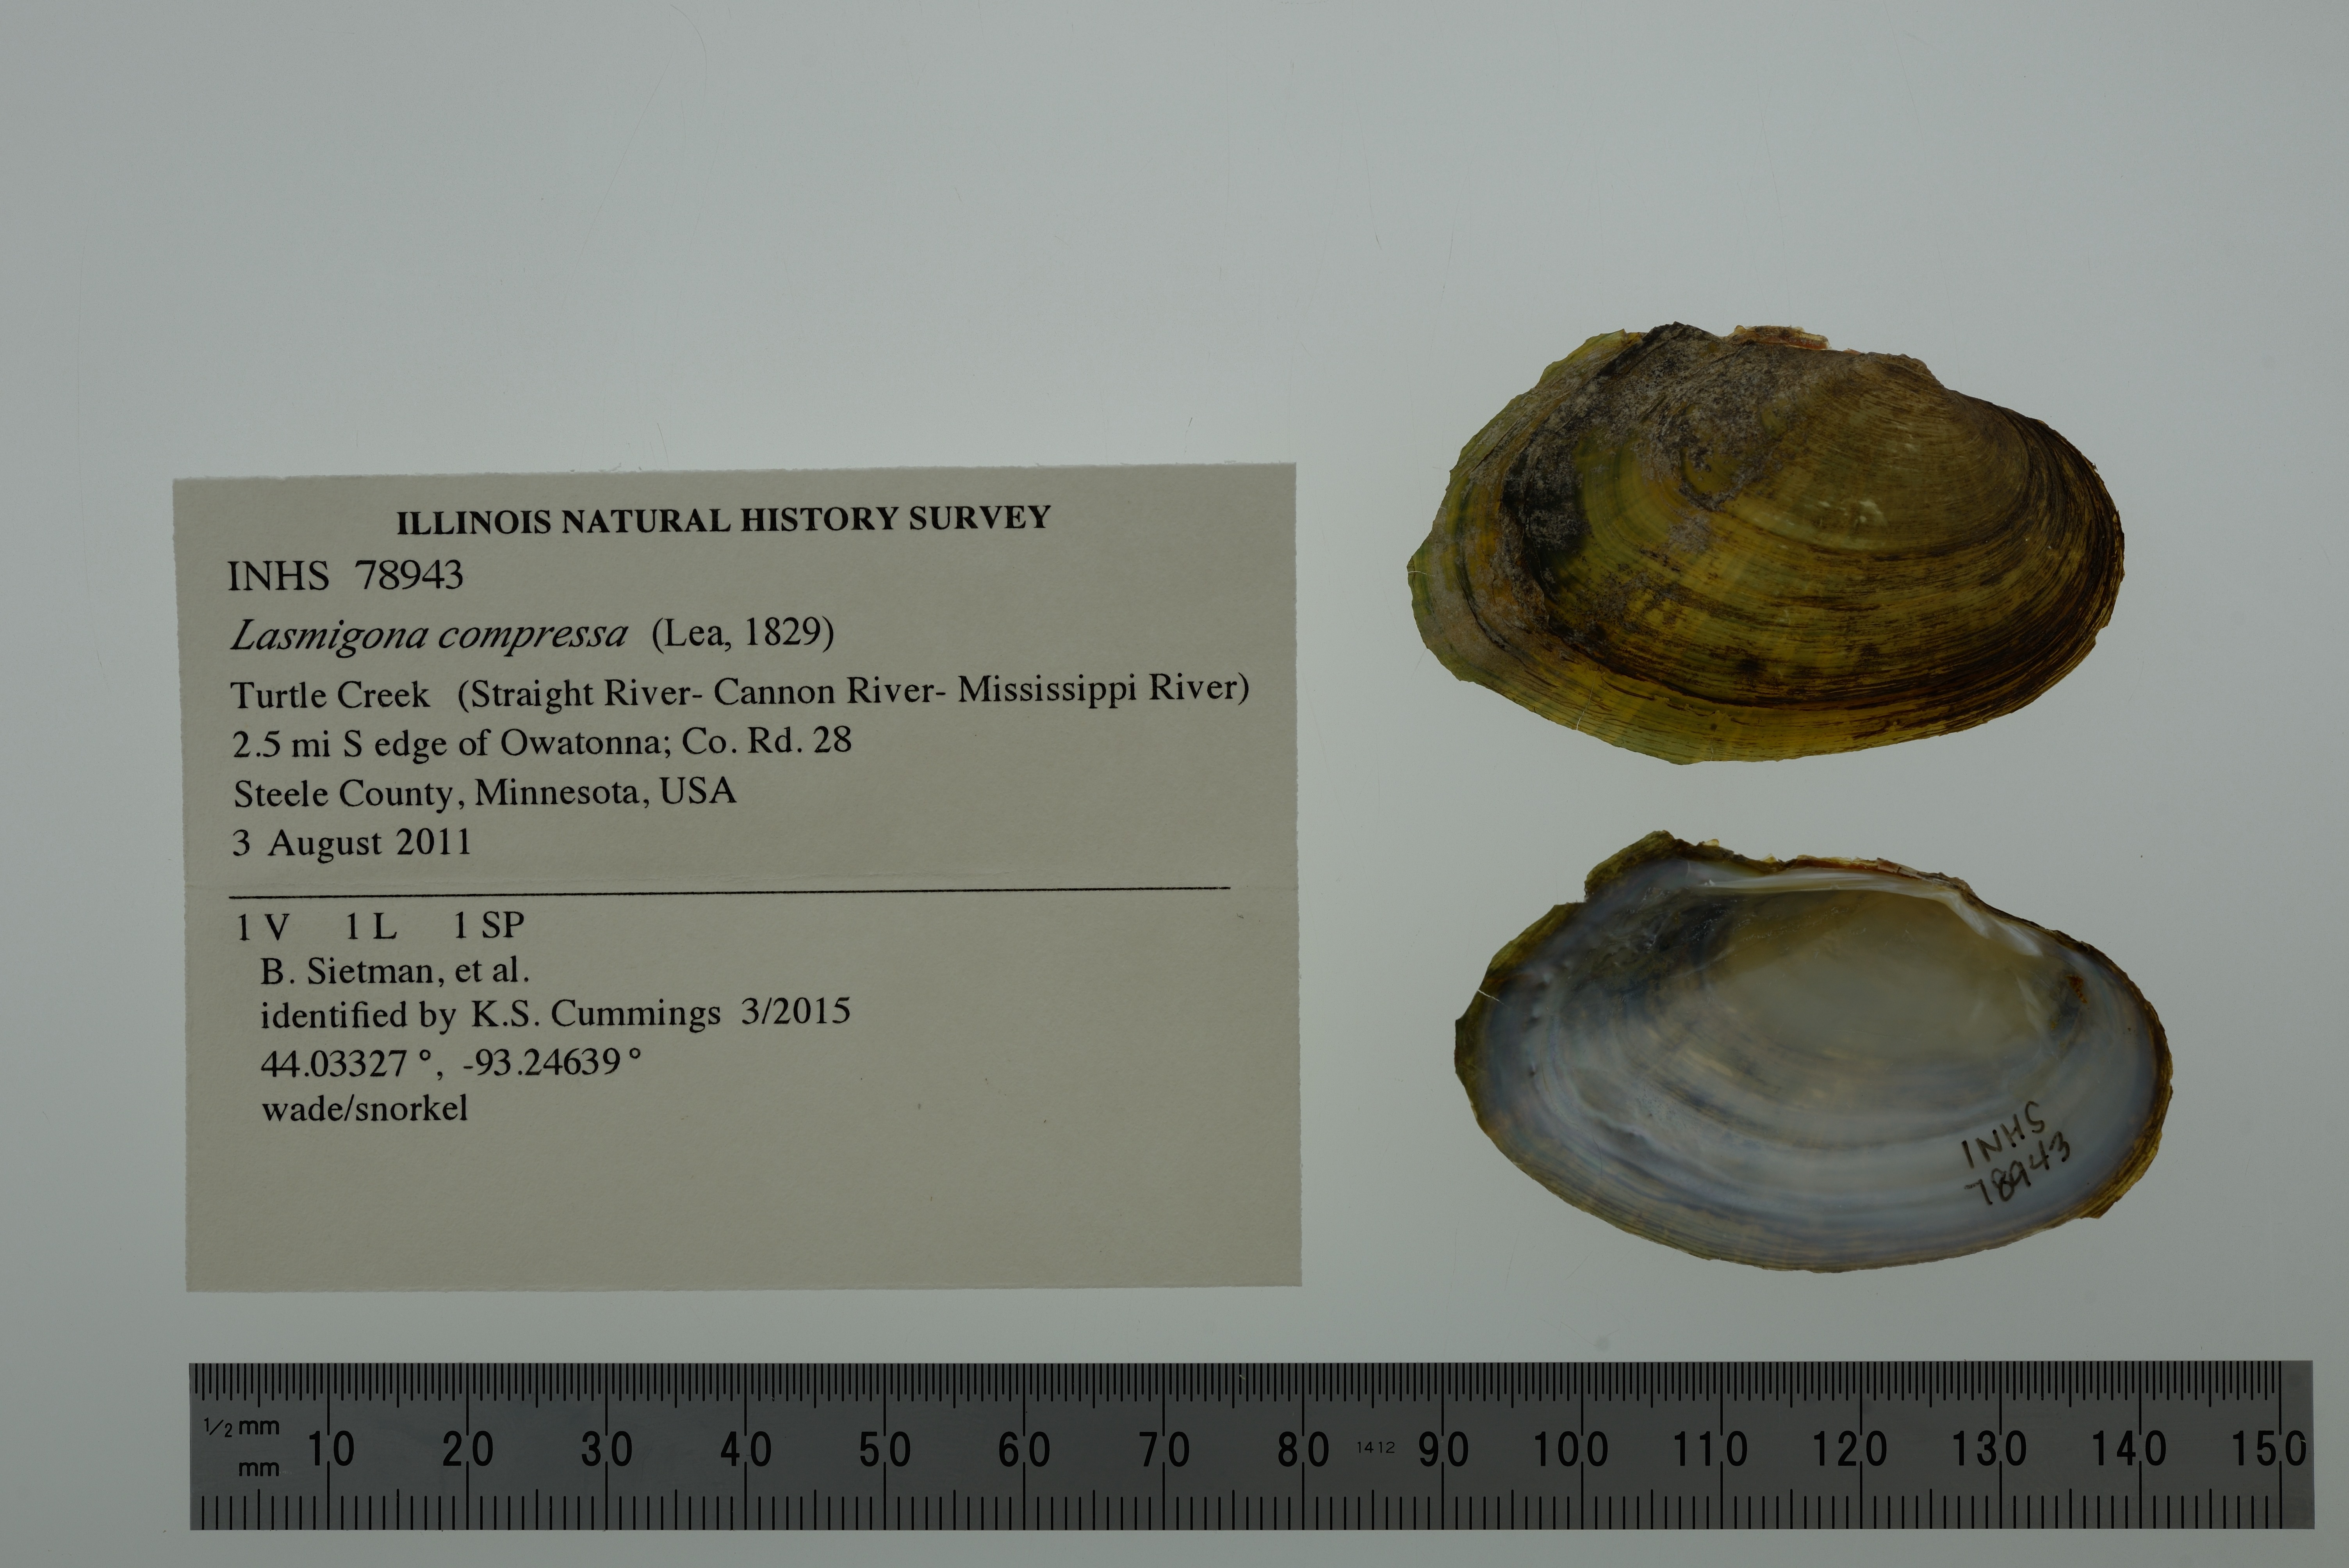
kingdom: Animalia
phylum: Mollusca
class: Bivalvia
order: Unionida
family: Unionidae
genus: Lasmigona
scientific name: Lasmigona compressa
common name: Creek heelsplitter
